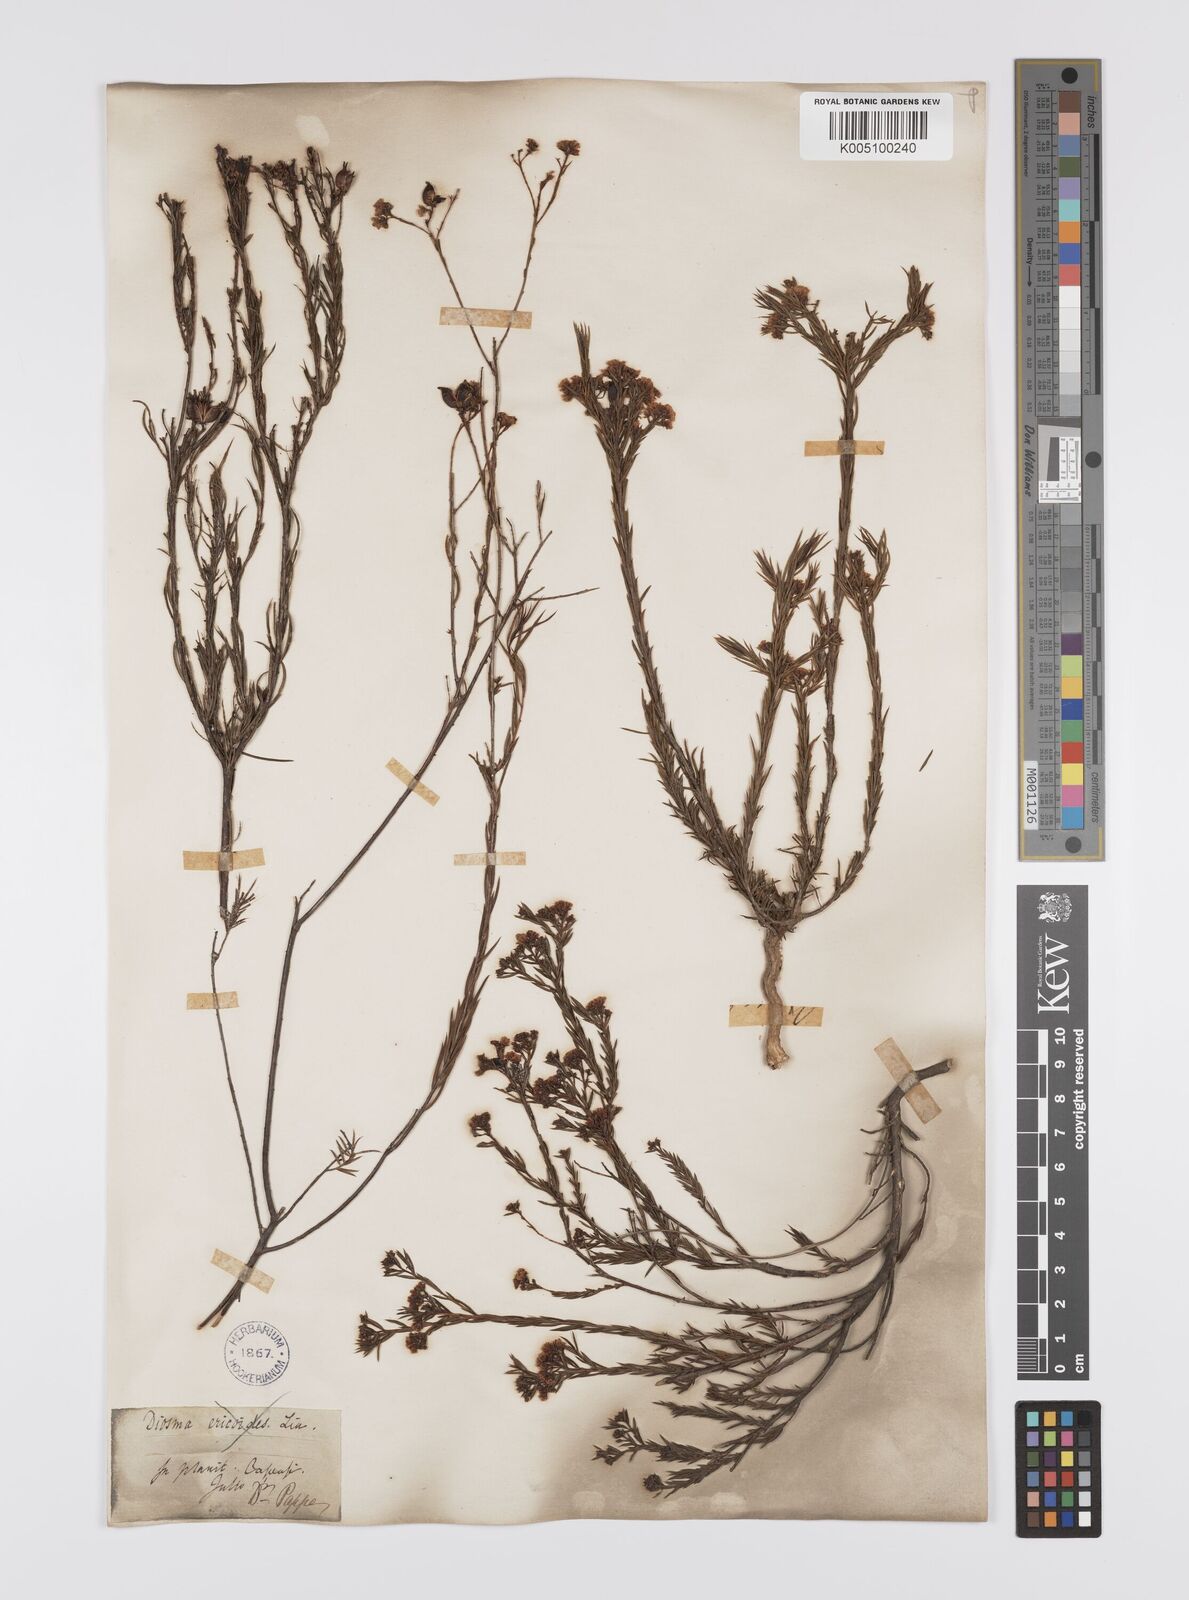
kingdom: Plantae
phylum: Tracheophyta
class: Magnoliopsida
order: Sapindales
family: Rutaceae
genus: Diosma
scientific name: Diosma hirsuta
